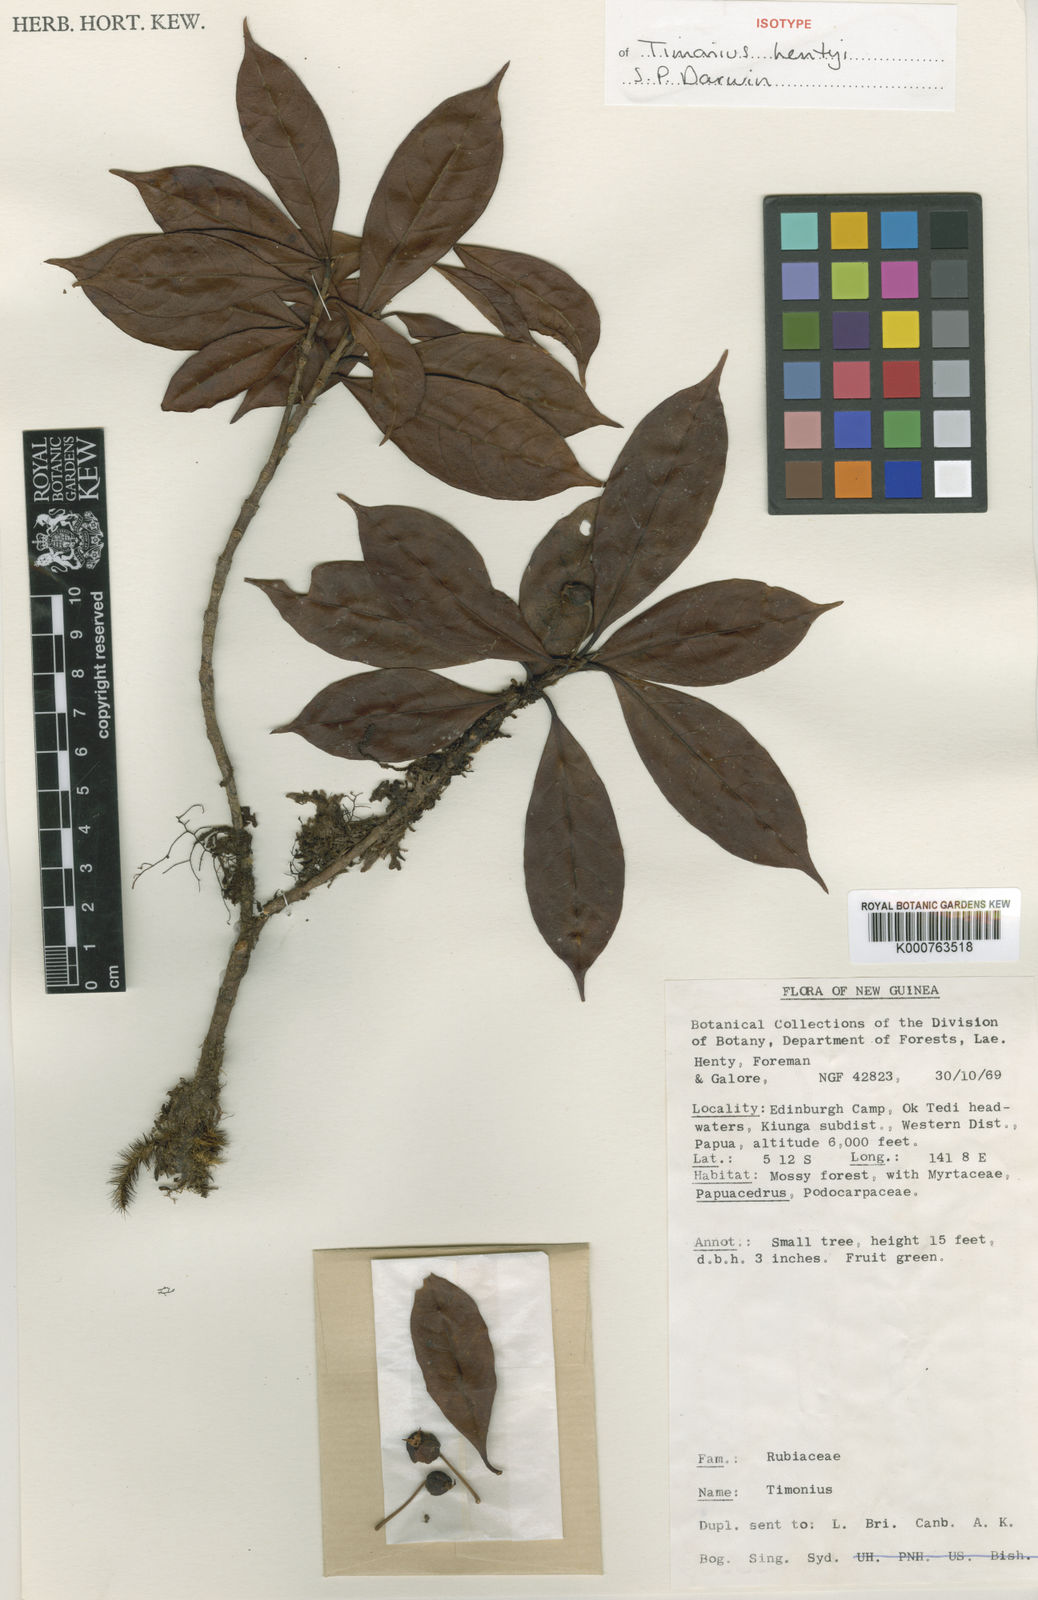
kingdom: Plantae
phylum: Tracheophyta
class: Magnoliopsida
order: Gentianales
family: Rubiaceae
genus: Timonius
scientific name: Timonius hentyi
